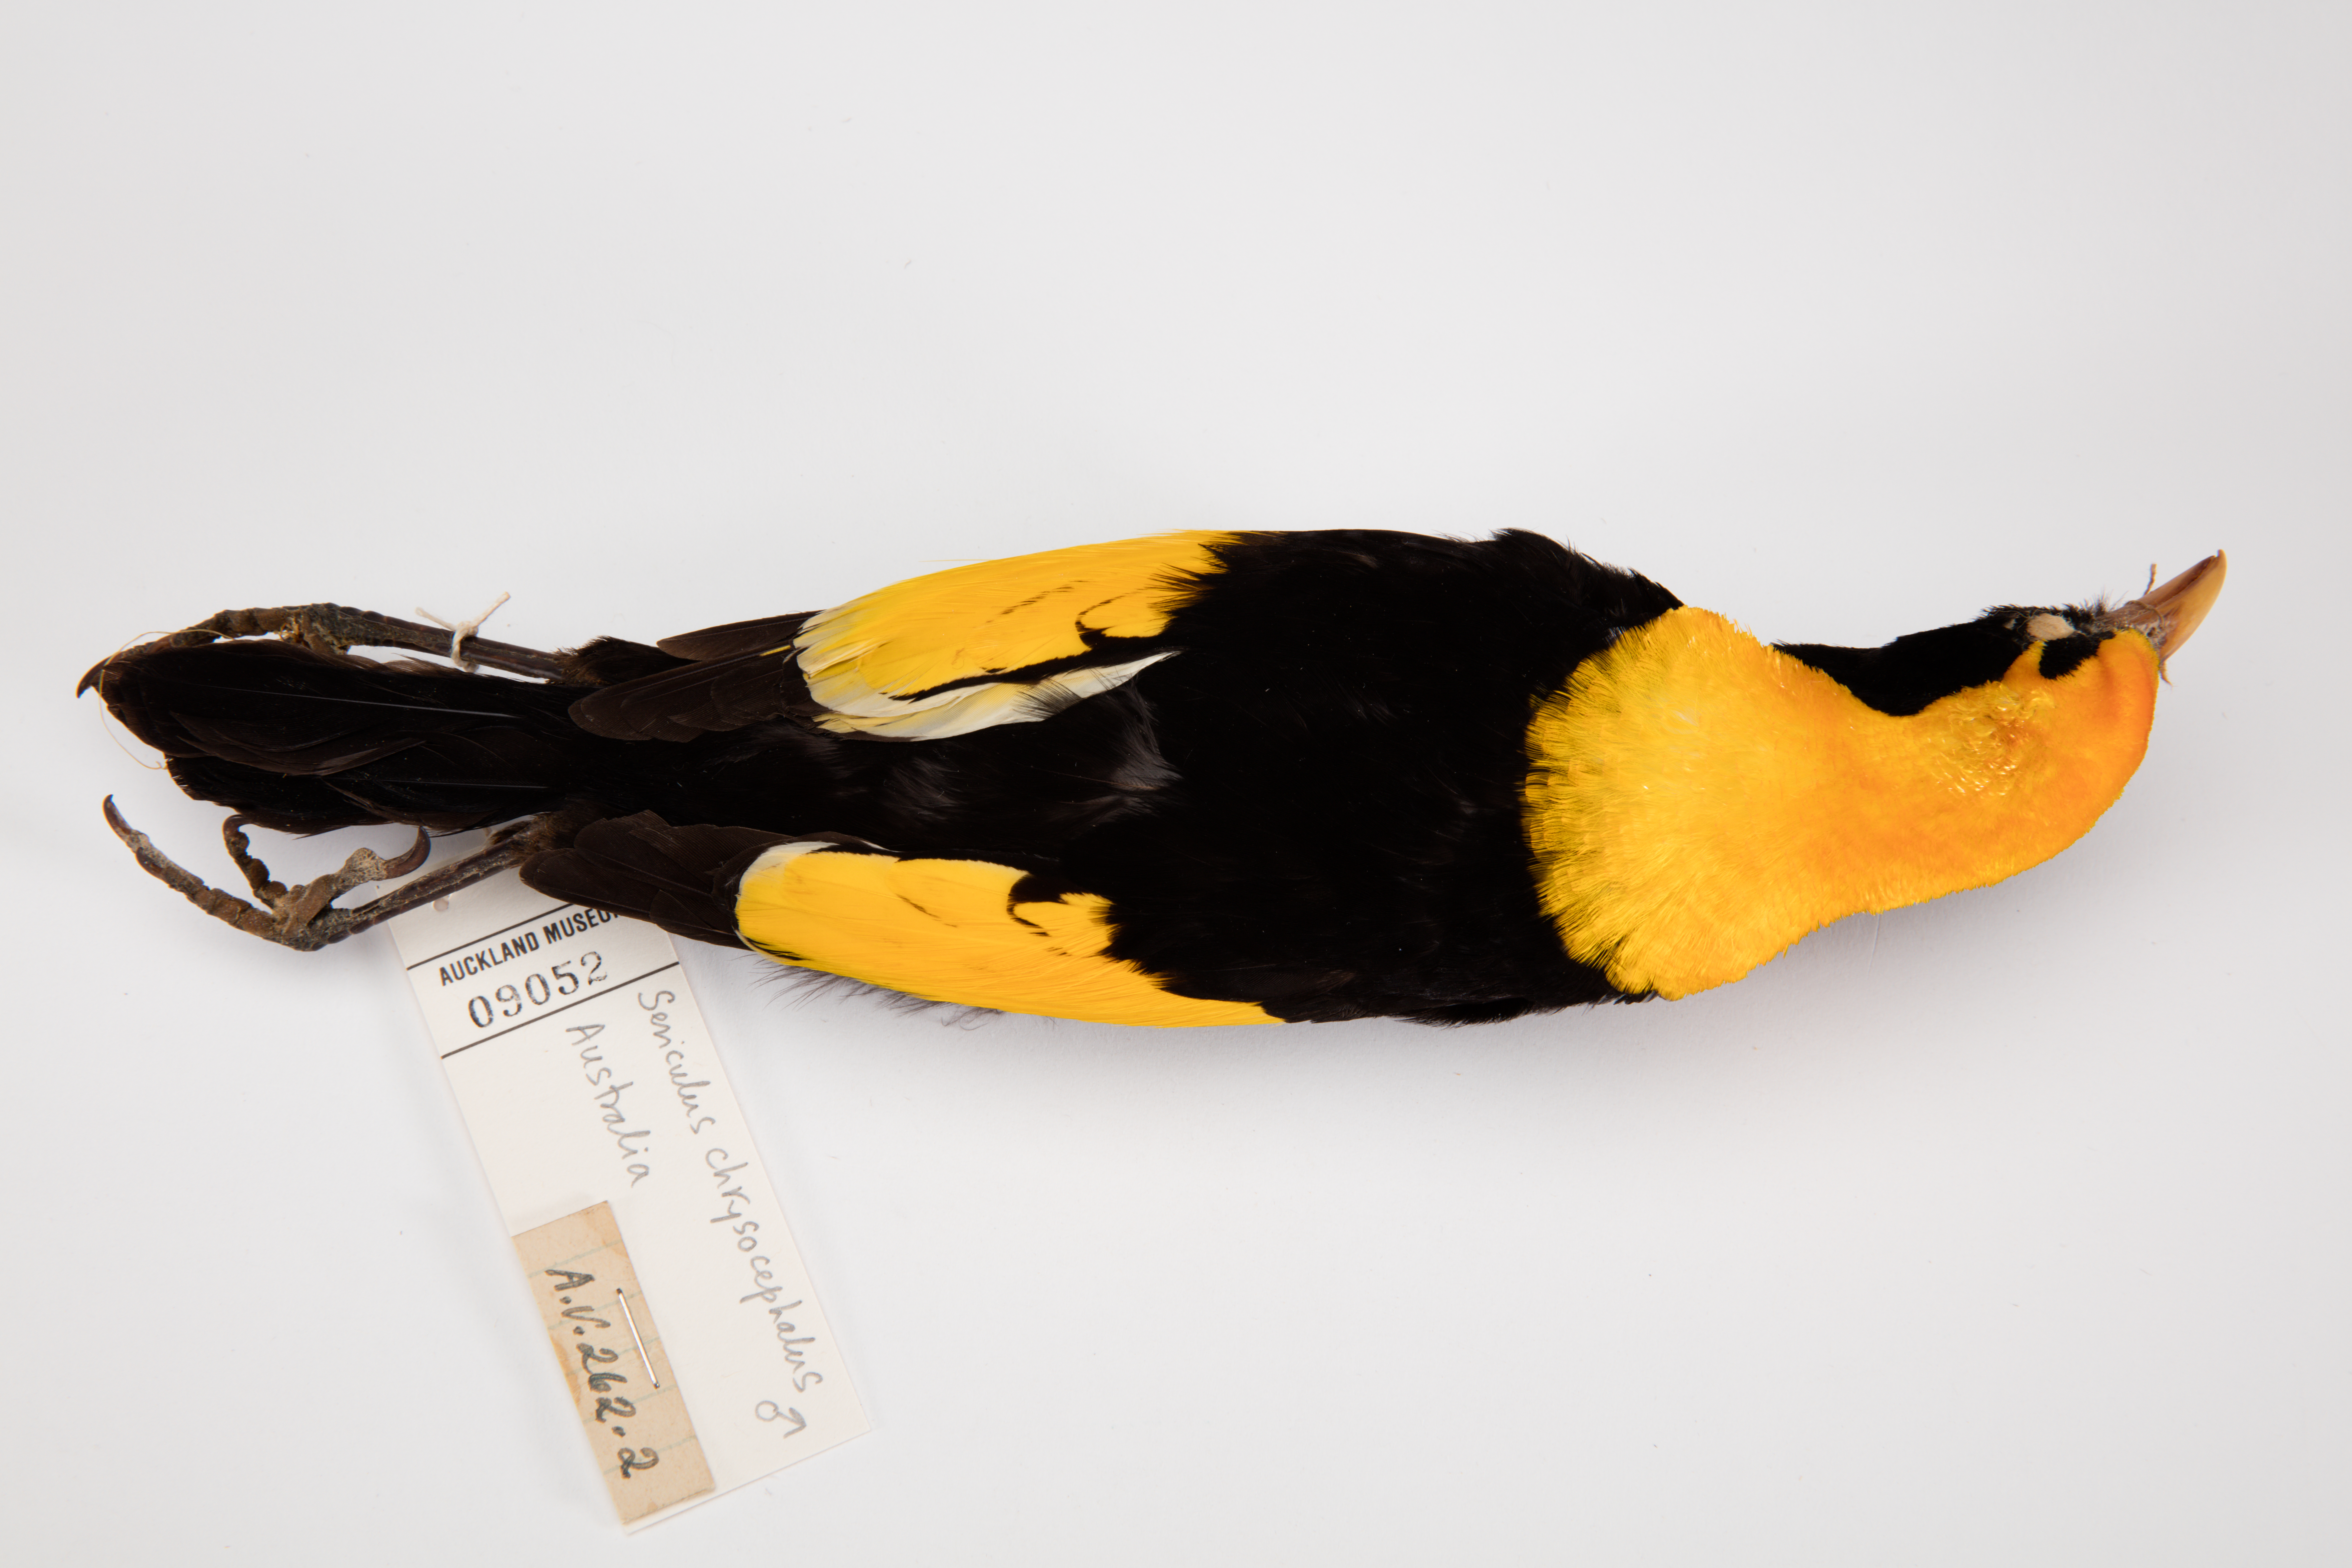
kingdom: Animalia
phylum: Chordata
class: Aves
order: Passeriformes
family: Ptilonorhynchidae
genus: Sericulus
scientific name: Sericulus chrysocephalus
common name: Regent bowerbird
